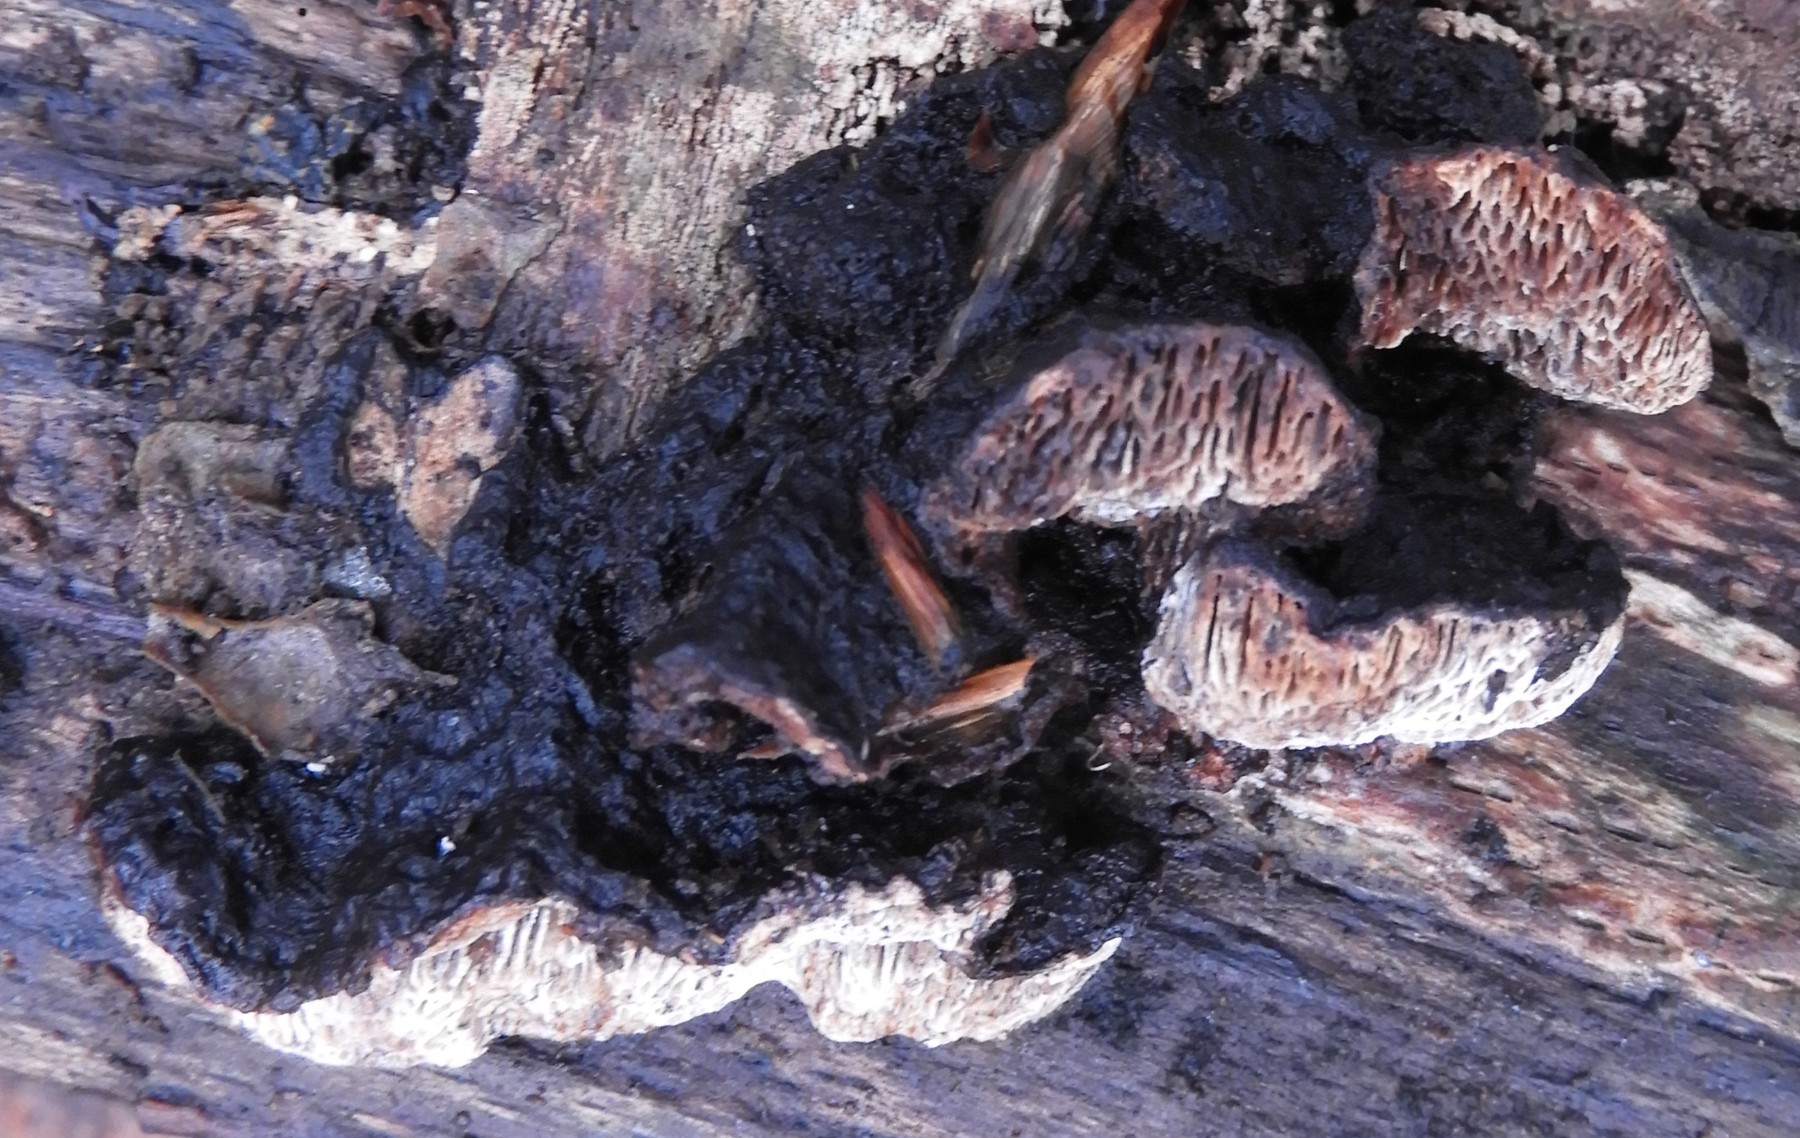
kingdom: Fungi
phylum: Basidiomycota
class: Agaricomycetes
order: Polyporales
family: Polyporaceae
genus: Podofomes
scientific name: Podofomes mollis
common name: blød begporesvamp
